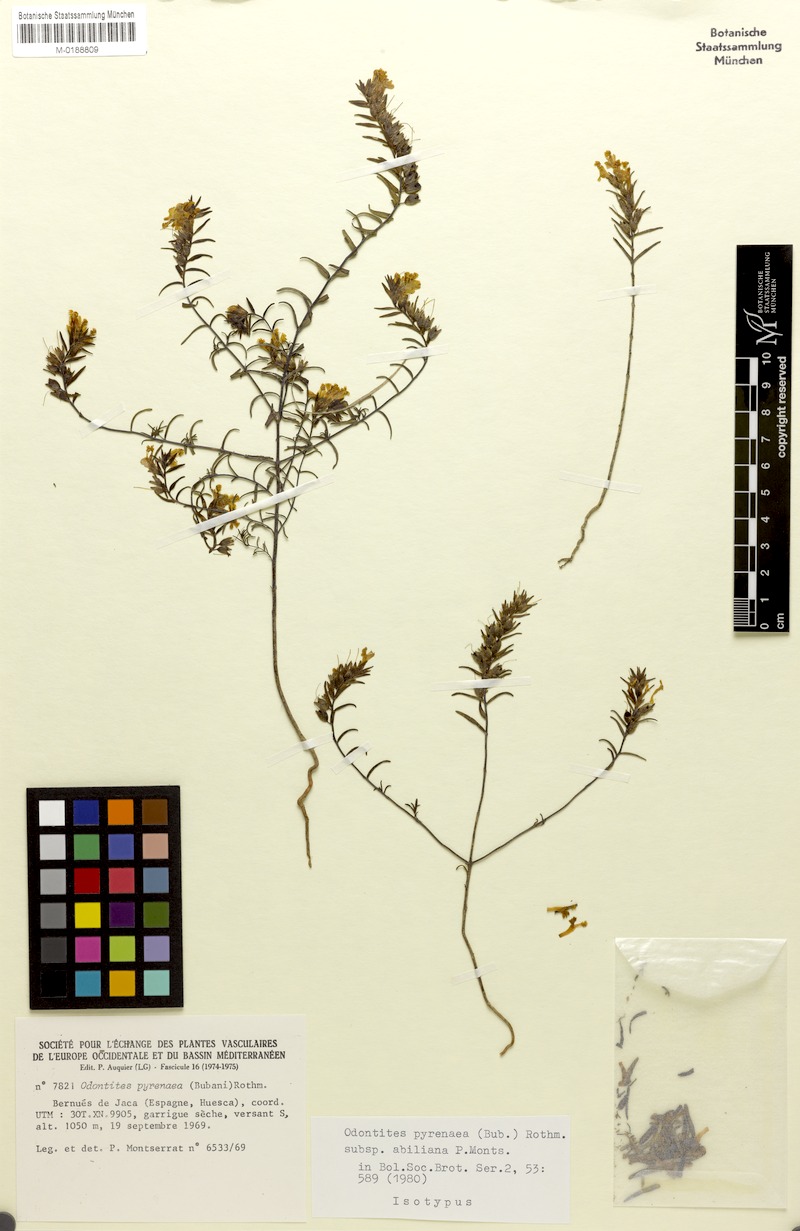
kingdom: Plantae
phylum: Tracheophyta
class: Magnoliopsida
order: Lamiales
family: Orobanchaceae
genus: Odontites
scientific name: Odontites pyrenaeus
